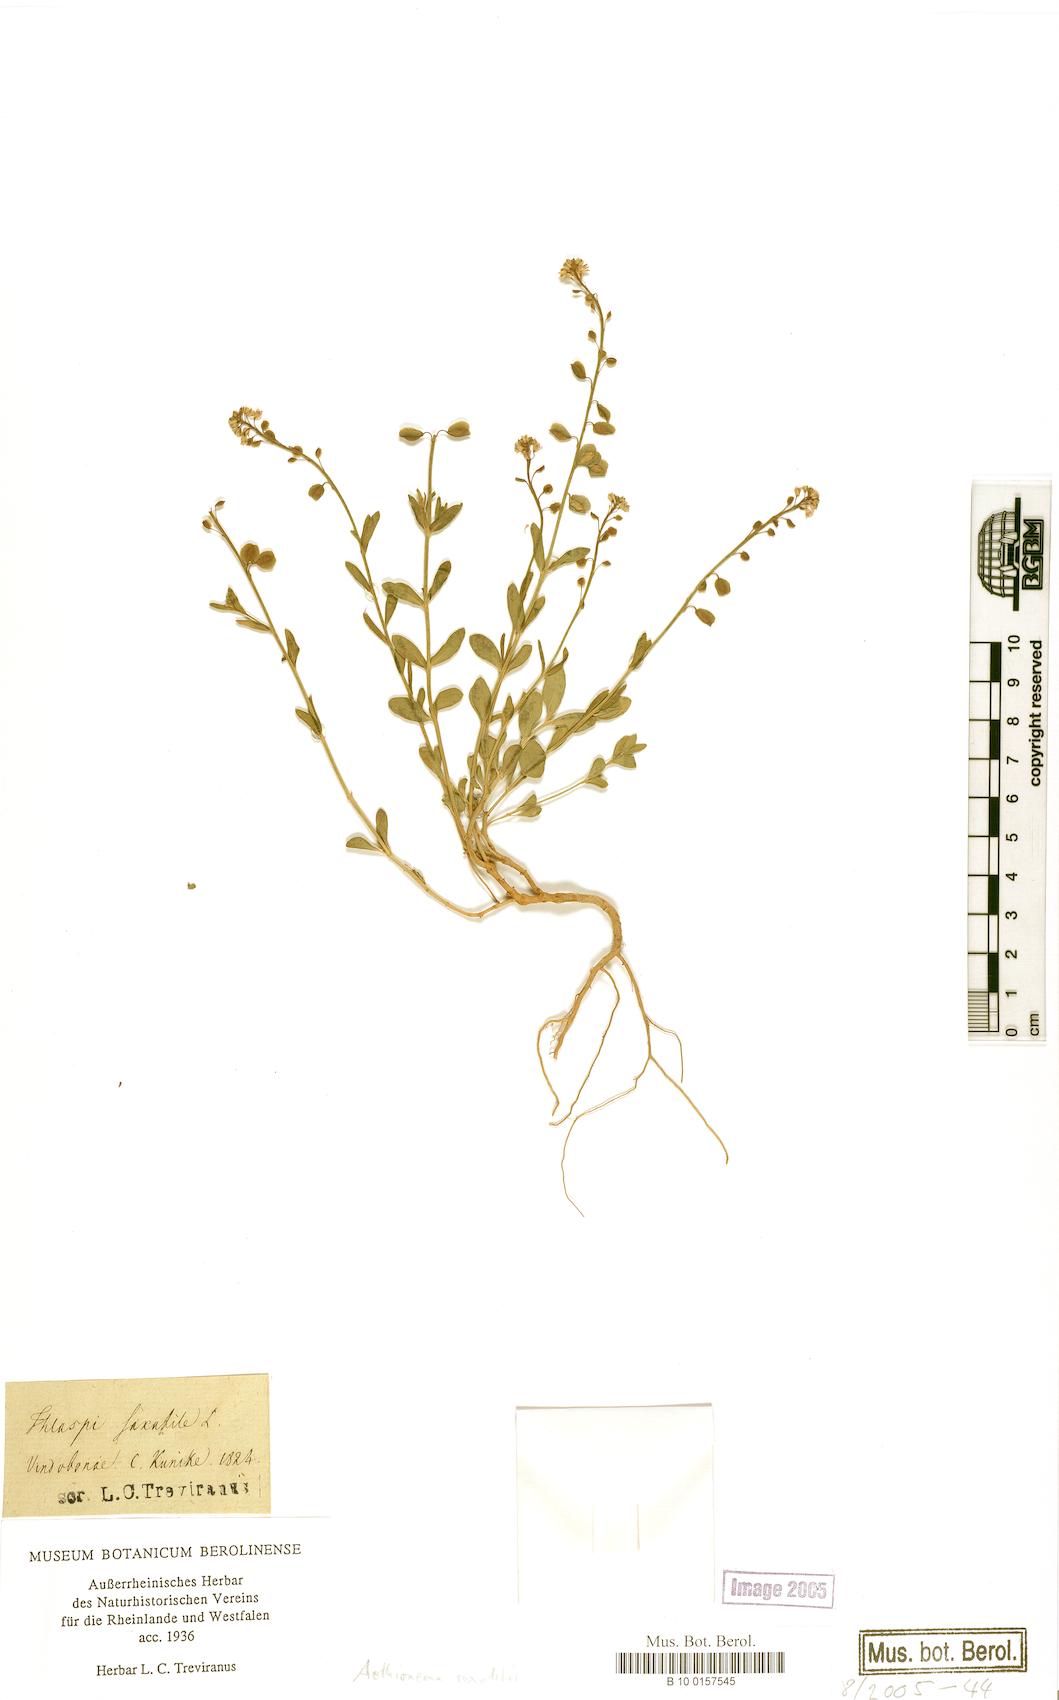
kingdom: Plantae
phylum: Tracheophyta
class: Magnoliopsida
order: Brassicales
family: Brassicaceae
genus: Aethionema
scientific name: Aethionema saxatile
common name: Burnt candytuft
